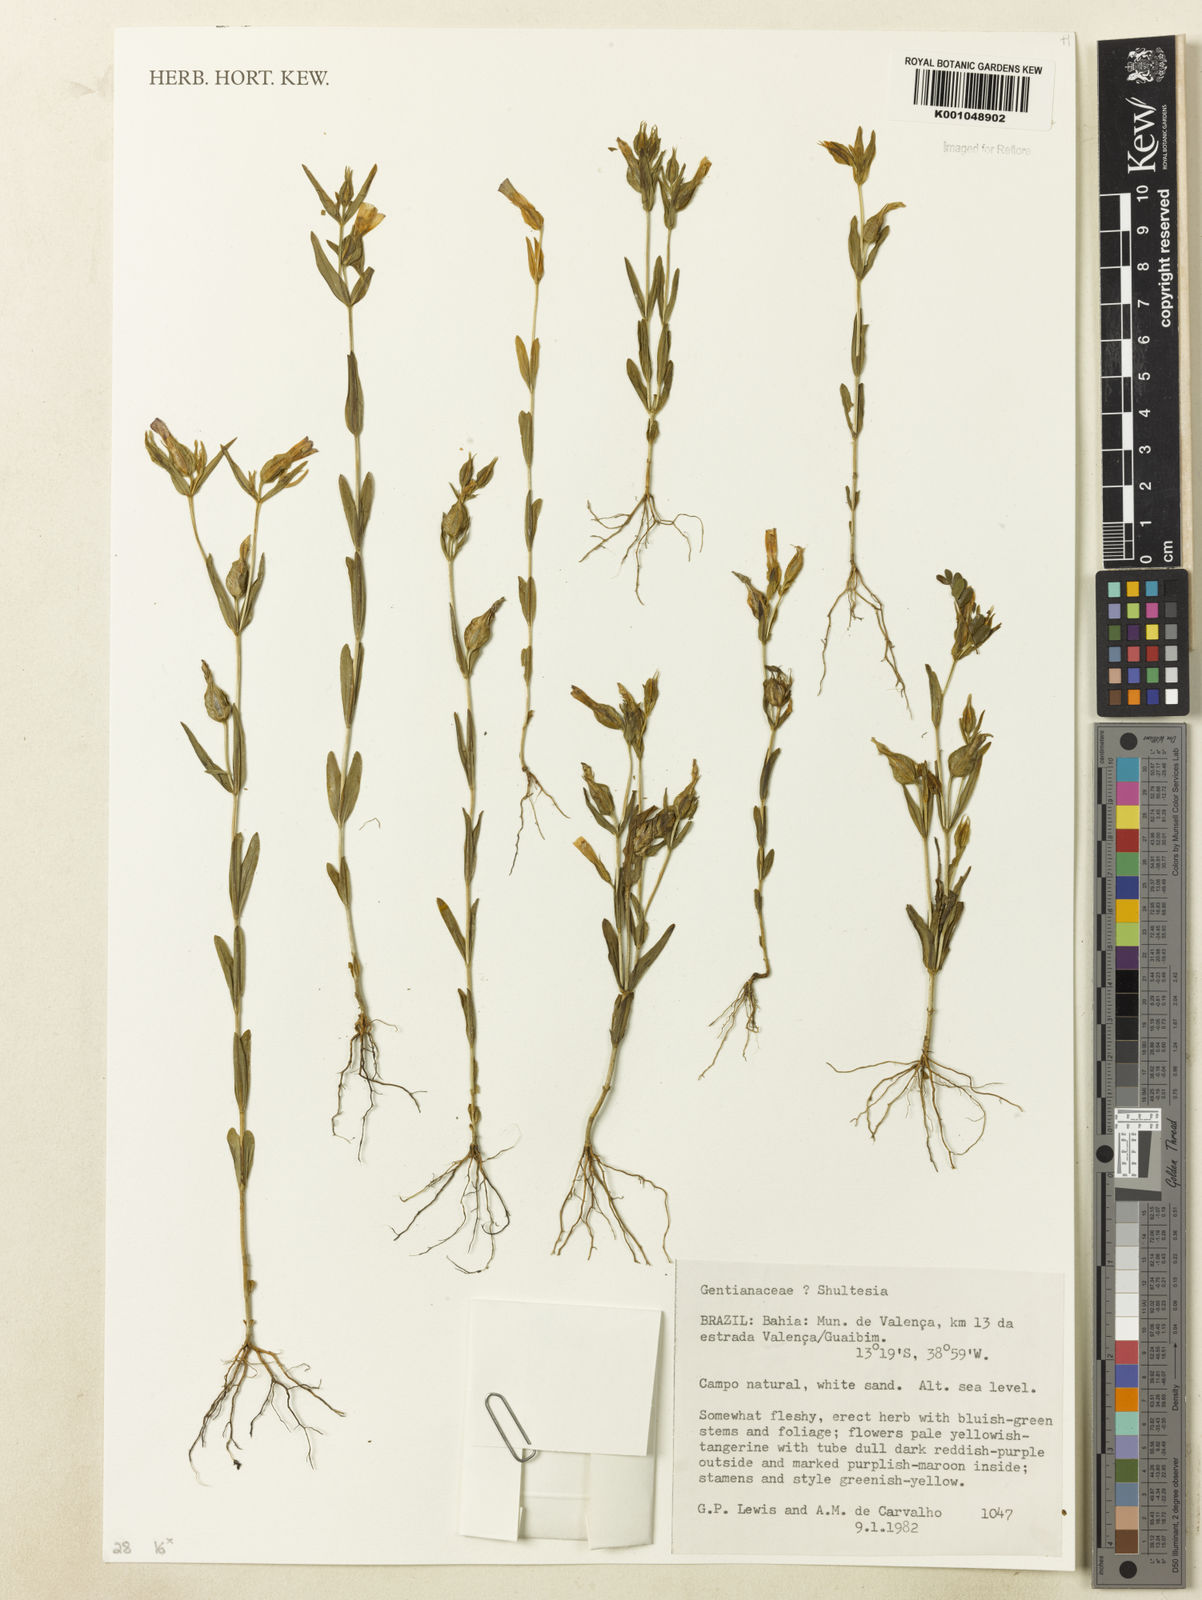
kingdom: Plantae
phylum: Tracheophyta
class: Magnoliopsida
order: Gentianales
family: Gentianaceae
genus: Schultesia
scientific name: Schultesia
